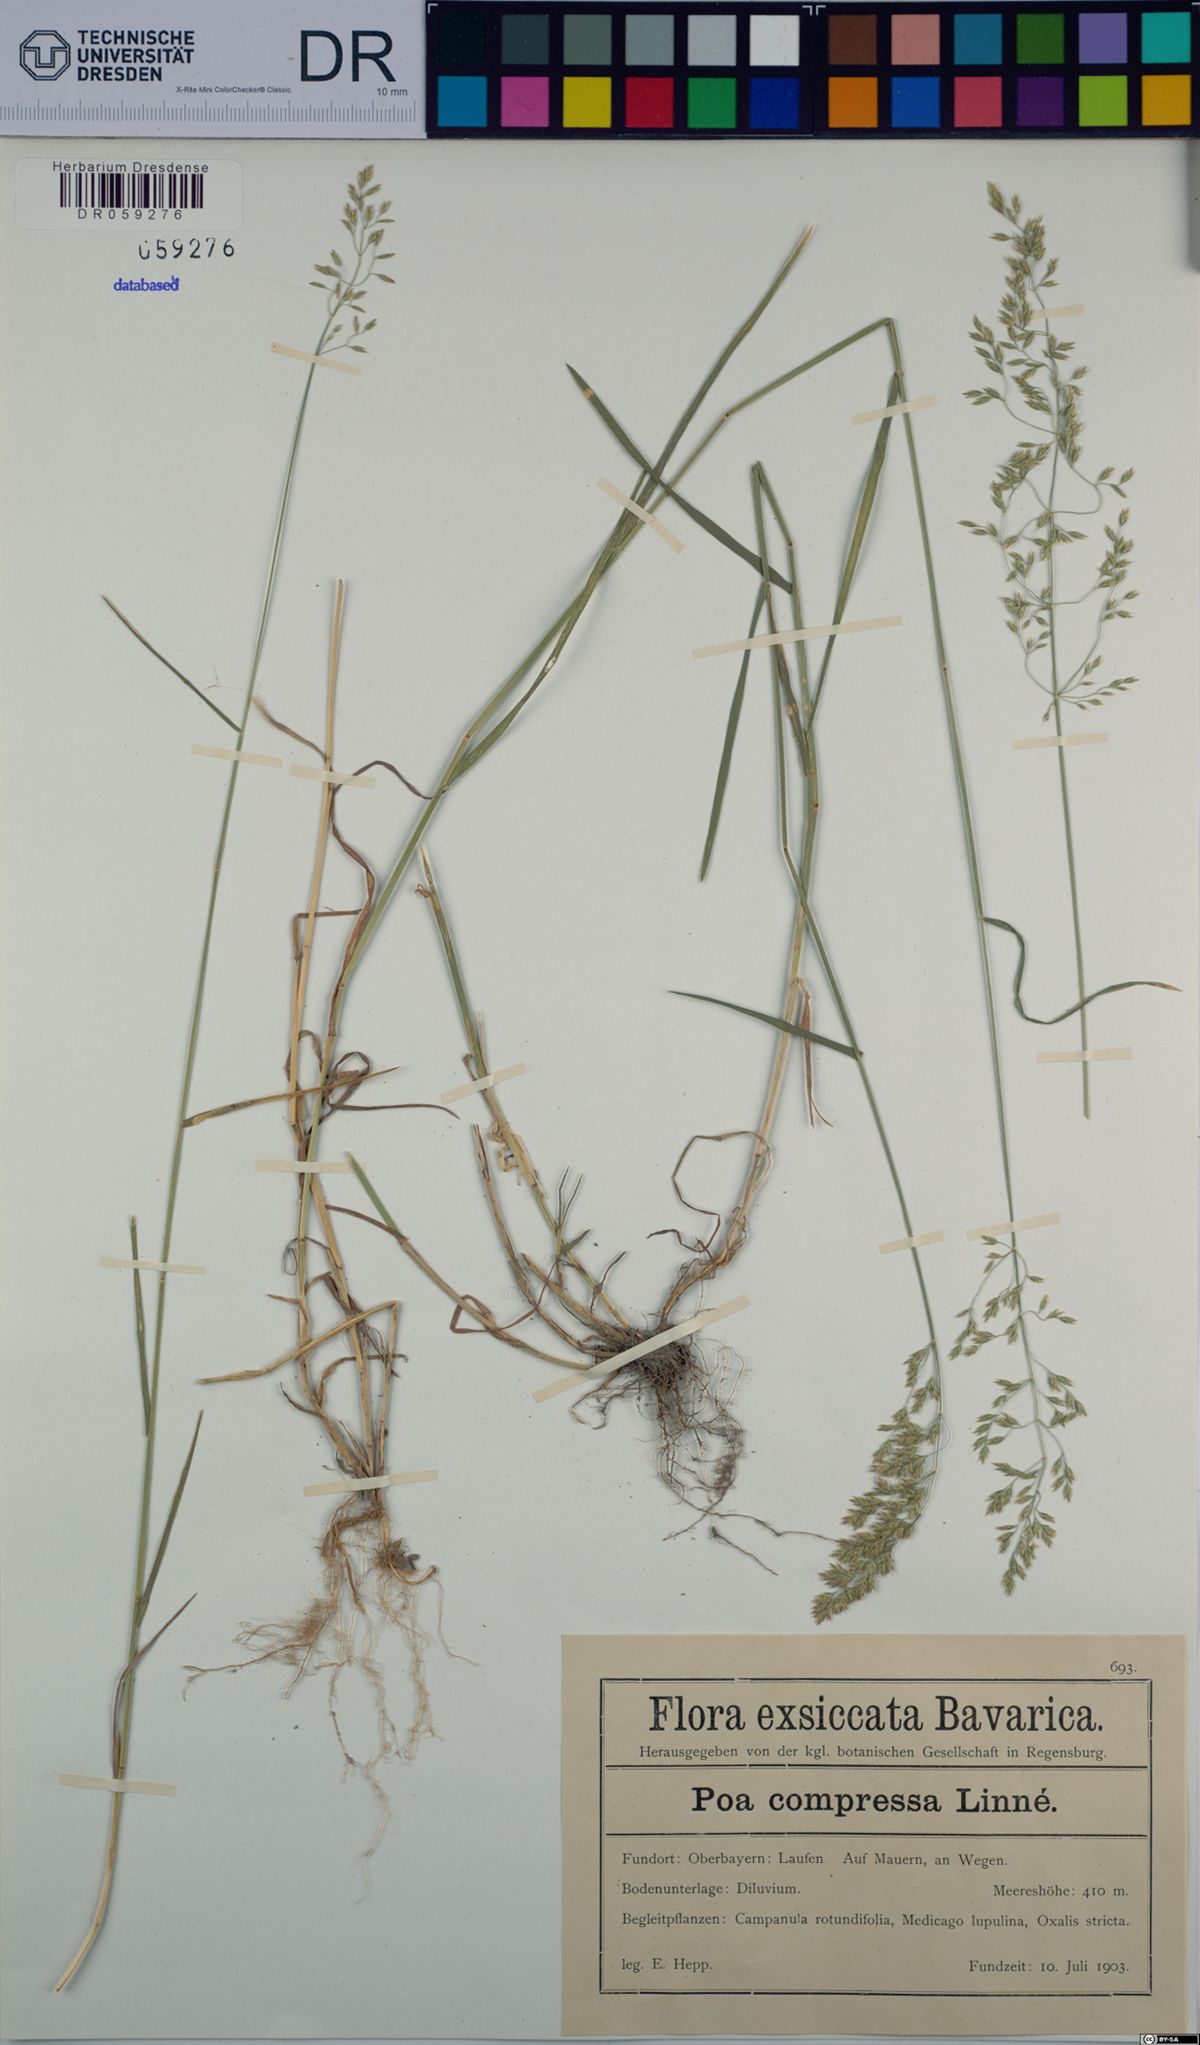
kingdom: Plantae
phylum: Tracheophyta
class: Liliopsida
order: Poales
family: Poaceae
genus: Poa
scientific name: Poa compressa
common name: Canada bluegrass
